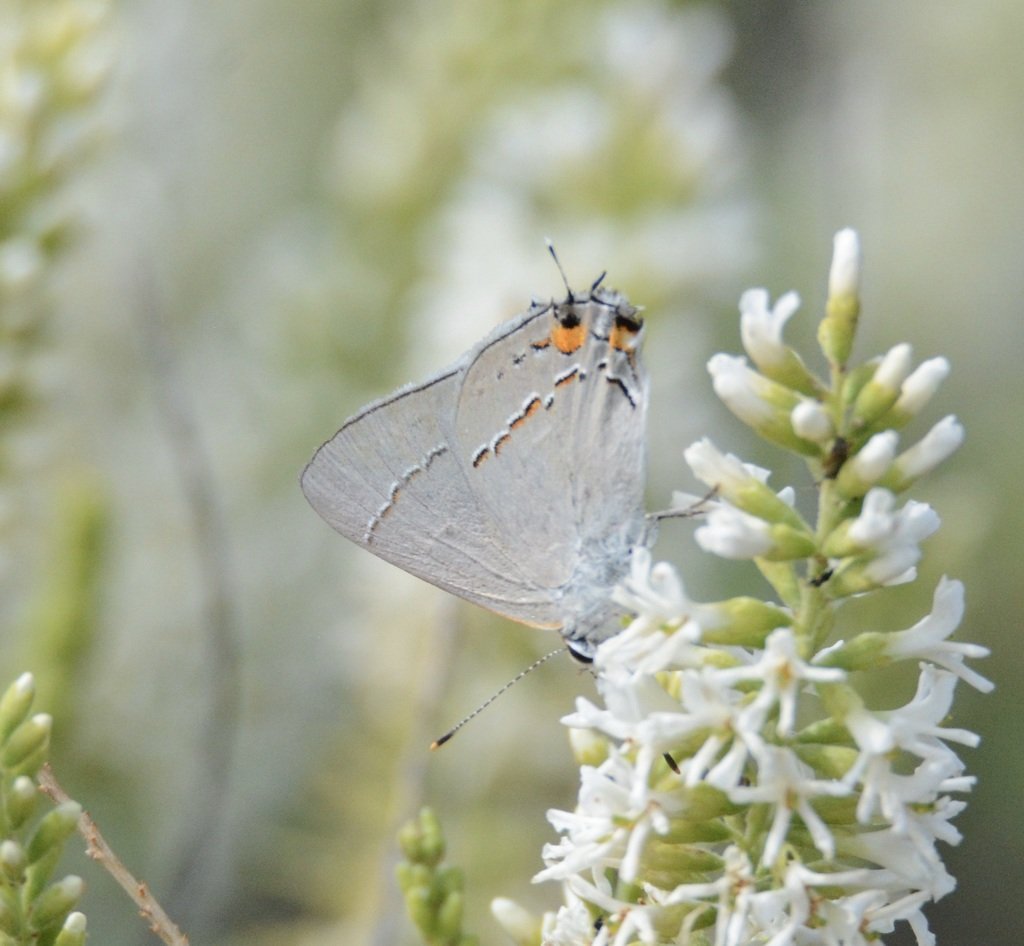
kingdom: Animalia
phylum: Arthropoda
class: Insecta
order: Lepidoptera
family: Lycaenidae
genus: Strymon
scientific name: Strymon melinus
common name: Gray Hairstreak
